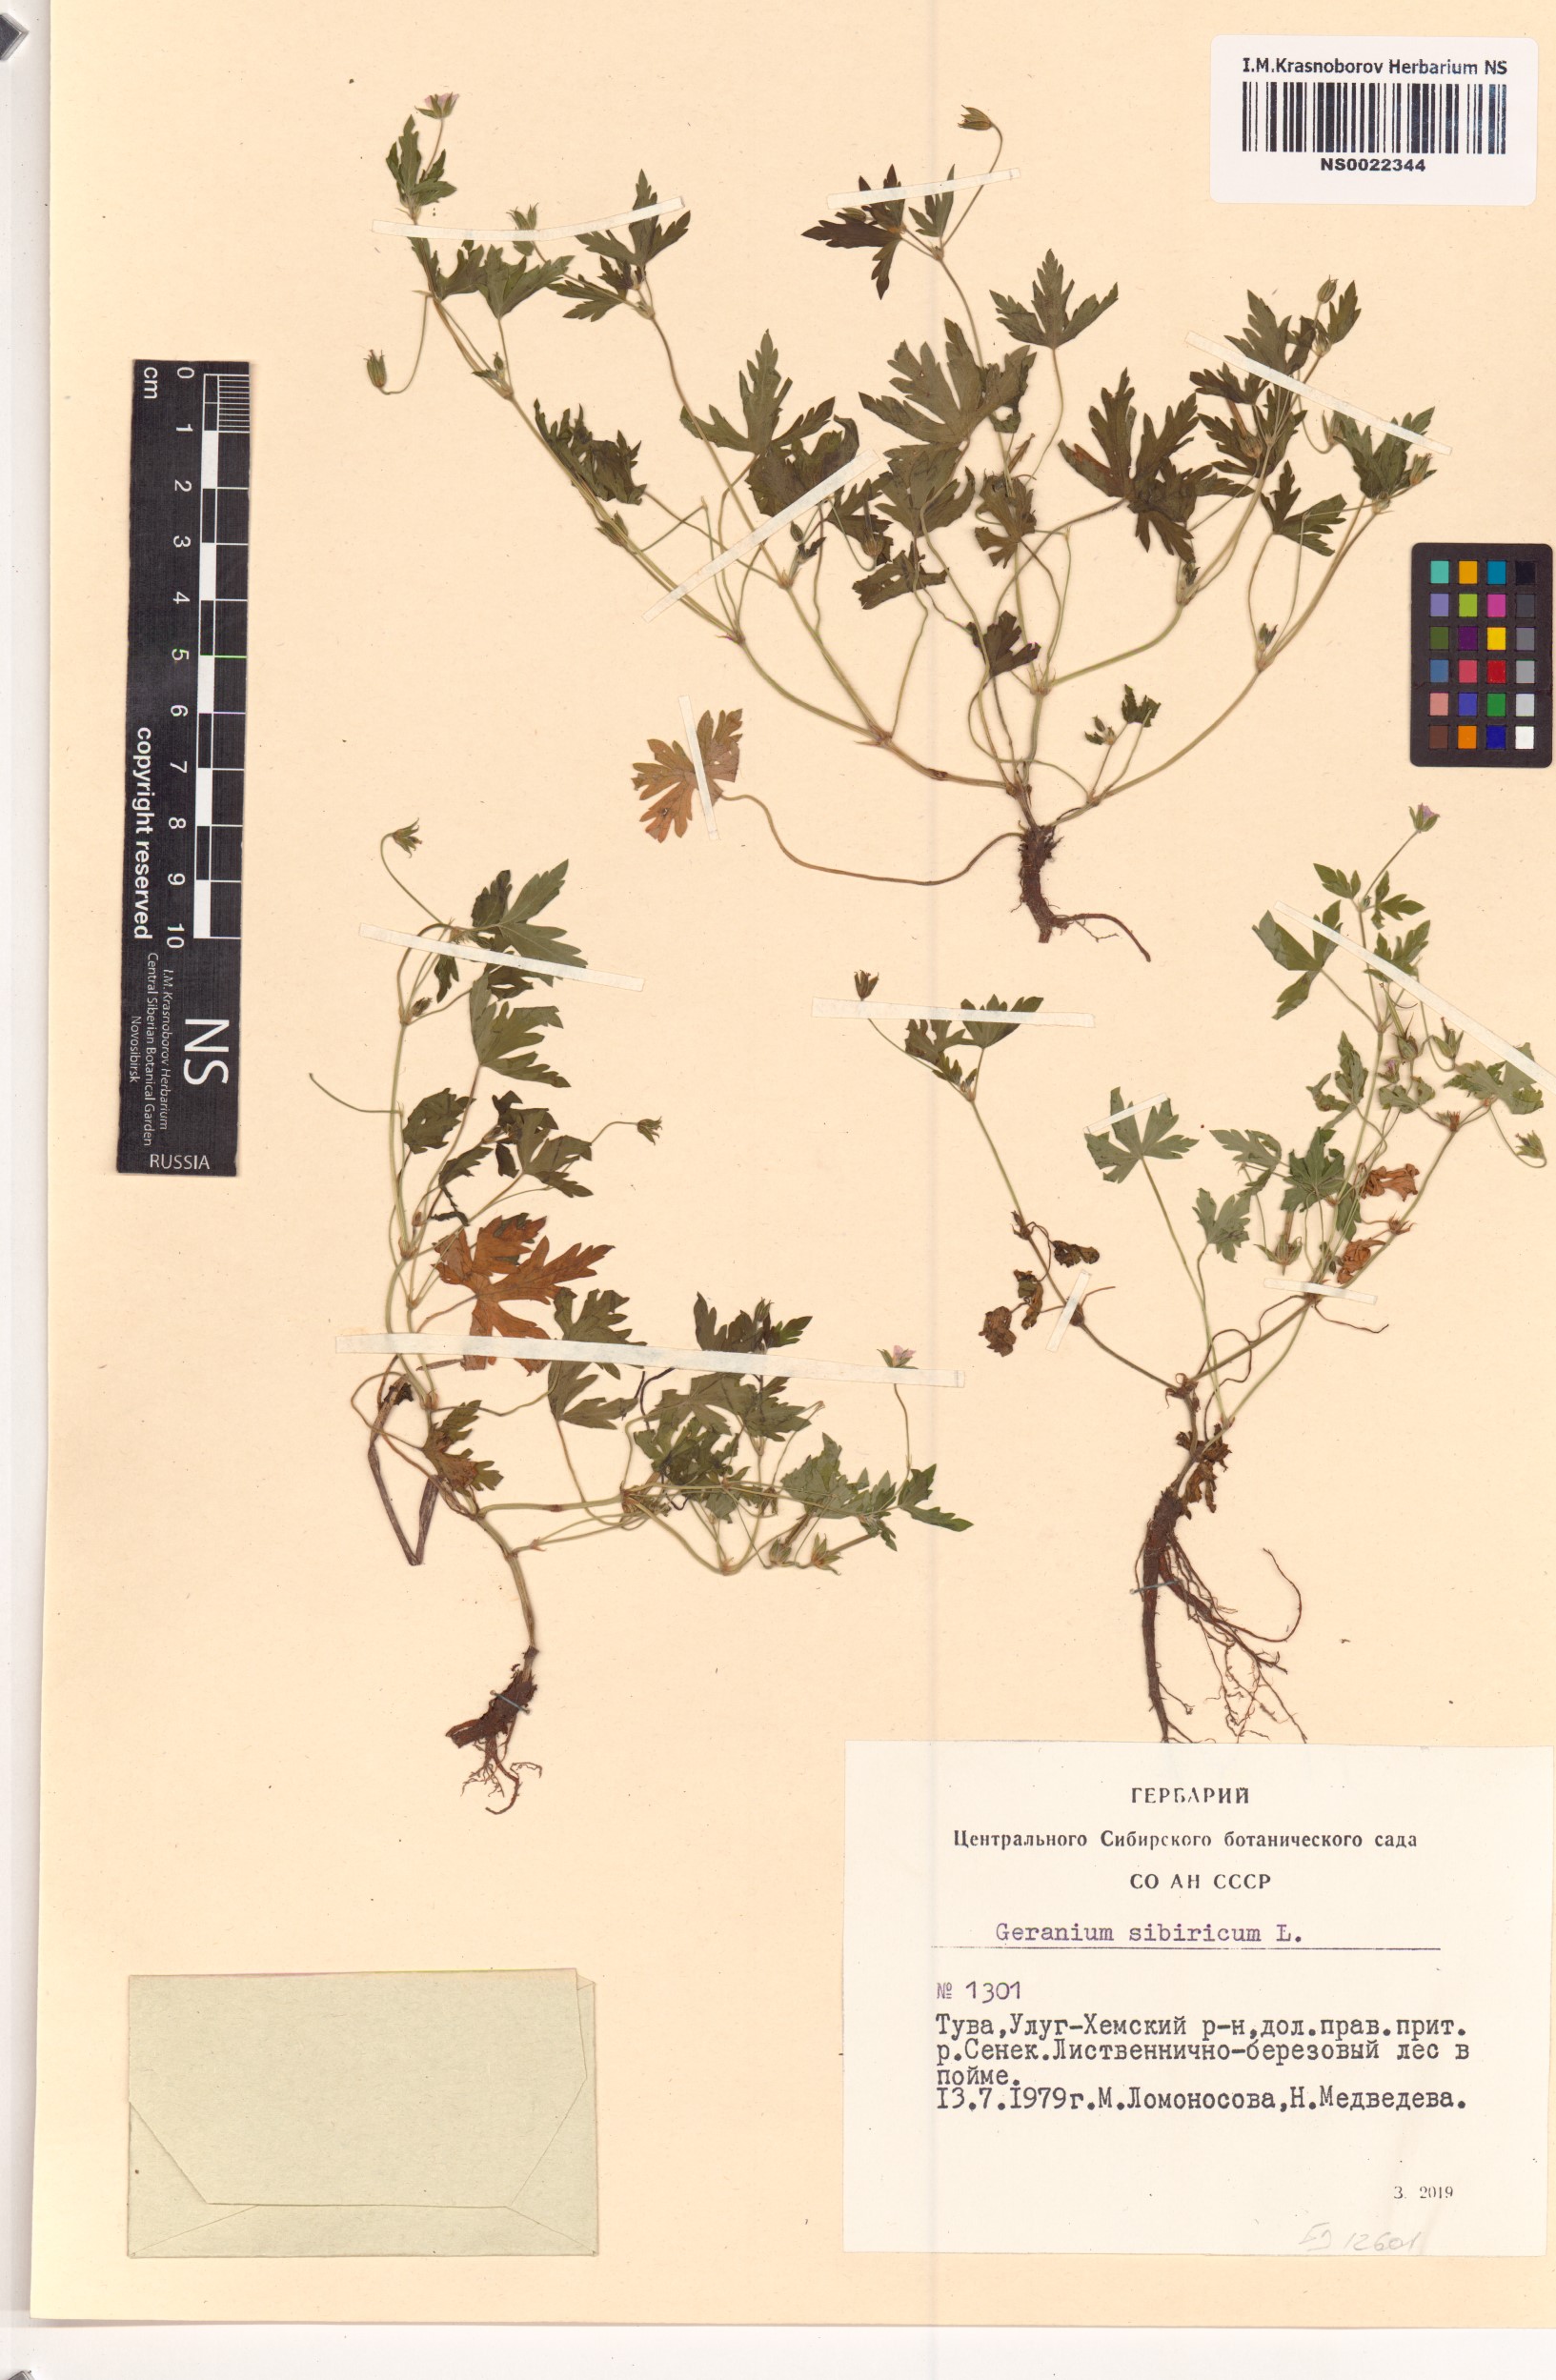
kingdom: Plantae
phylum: Tracheophyta
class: Magnoliopsida
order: Geraniales
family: Geraniaceae
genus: Geranium
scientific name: Geranium sibiricum
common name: Siberian crane's-bill
